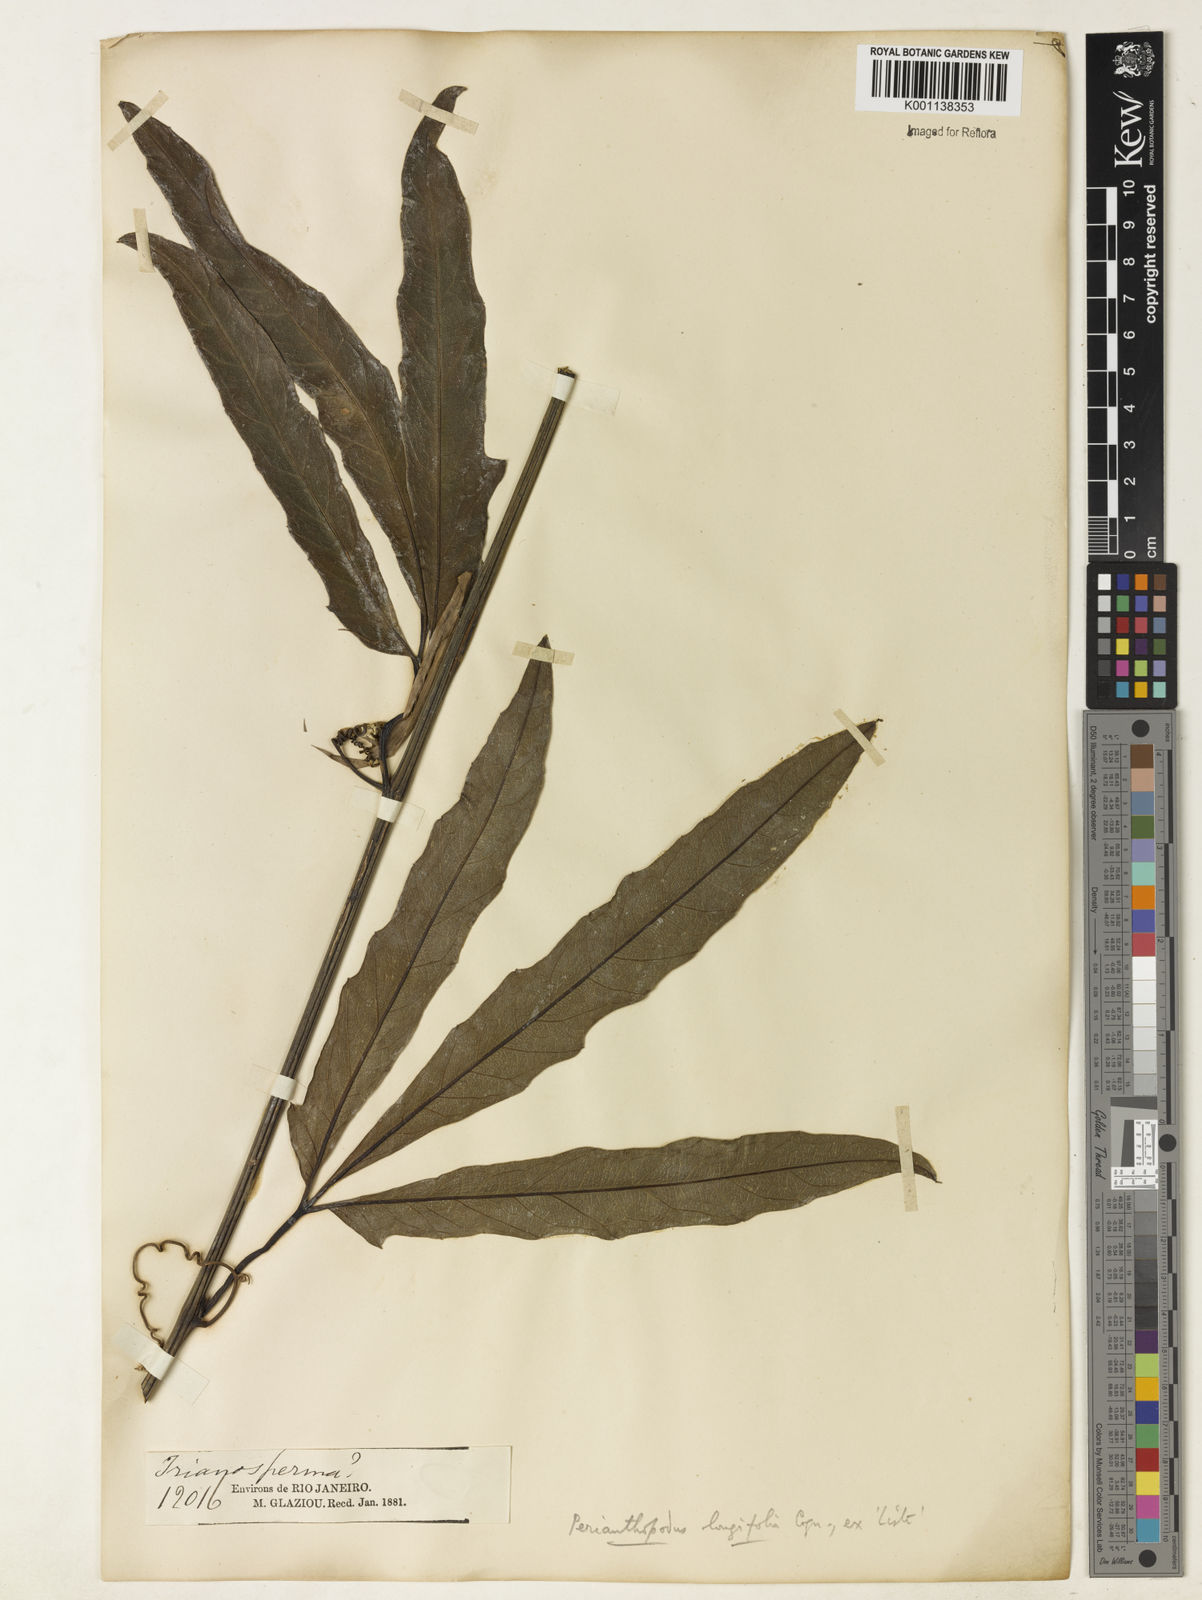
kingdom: Plantae
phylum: Tracheophyta
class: Magnoliopsida
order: Cucurbitales
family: Cucurbitaceae
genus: Cayaponia
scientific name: Cayaponia longifolia
